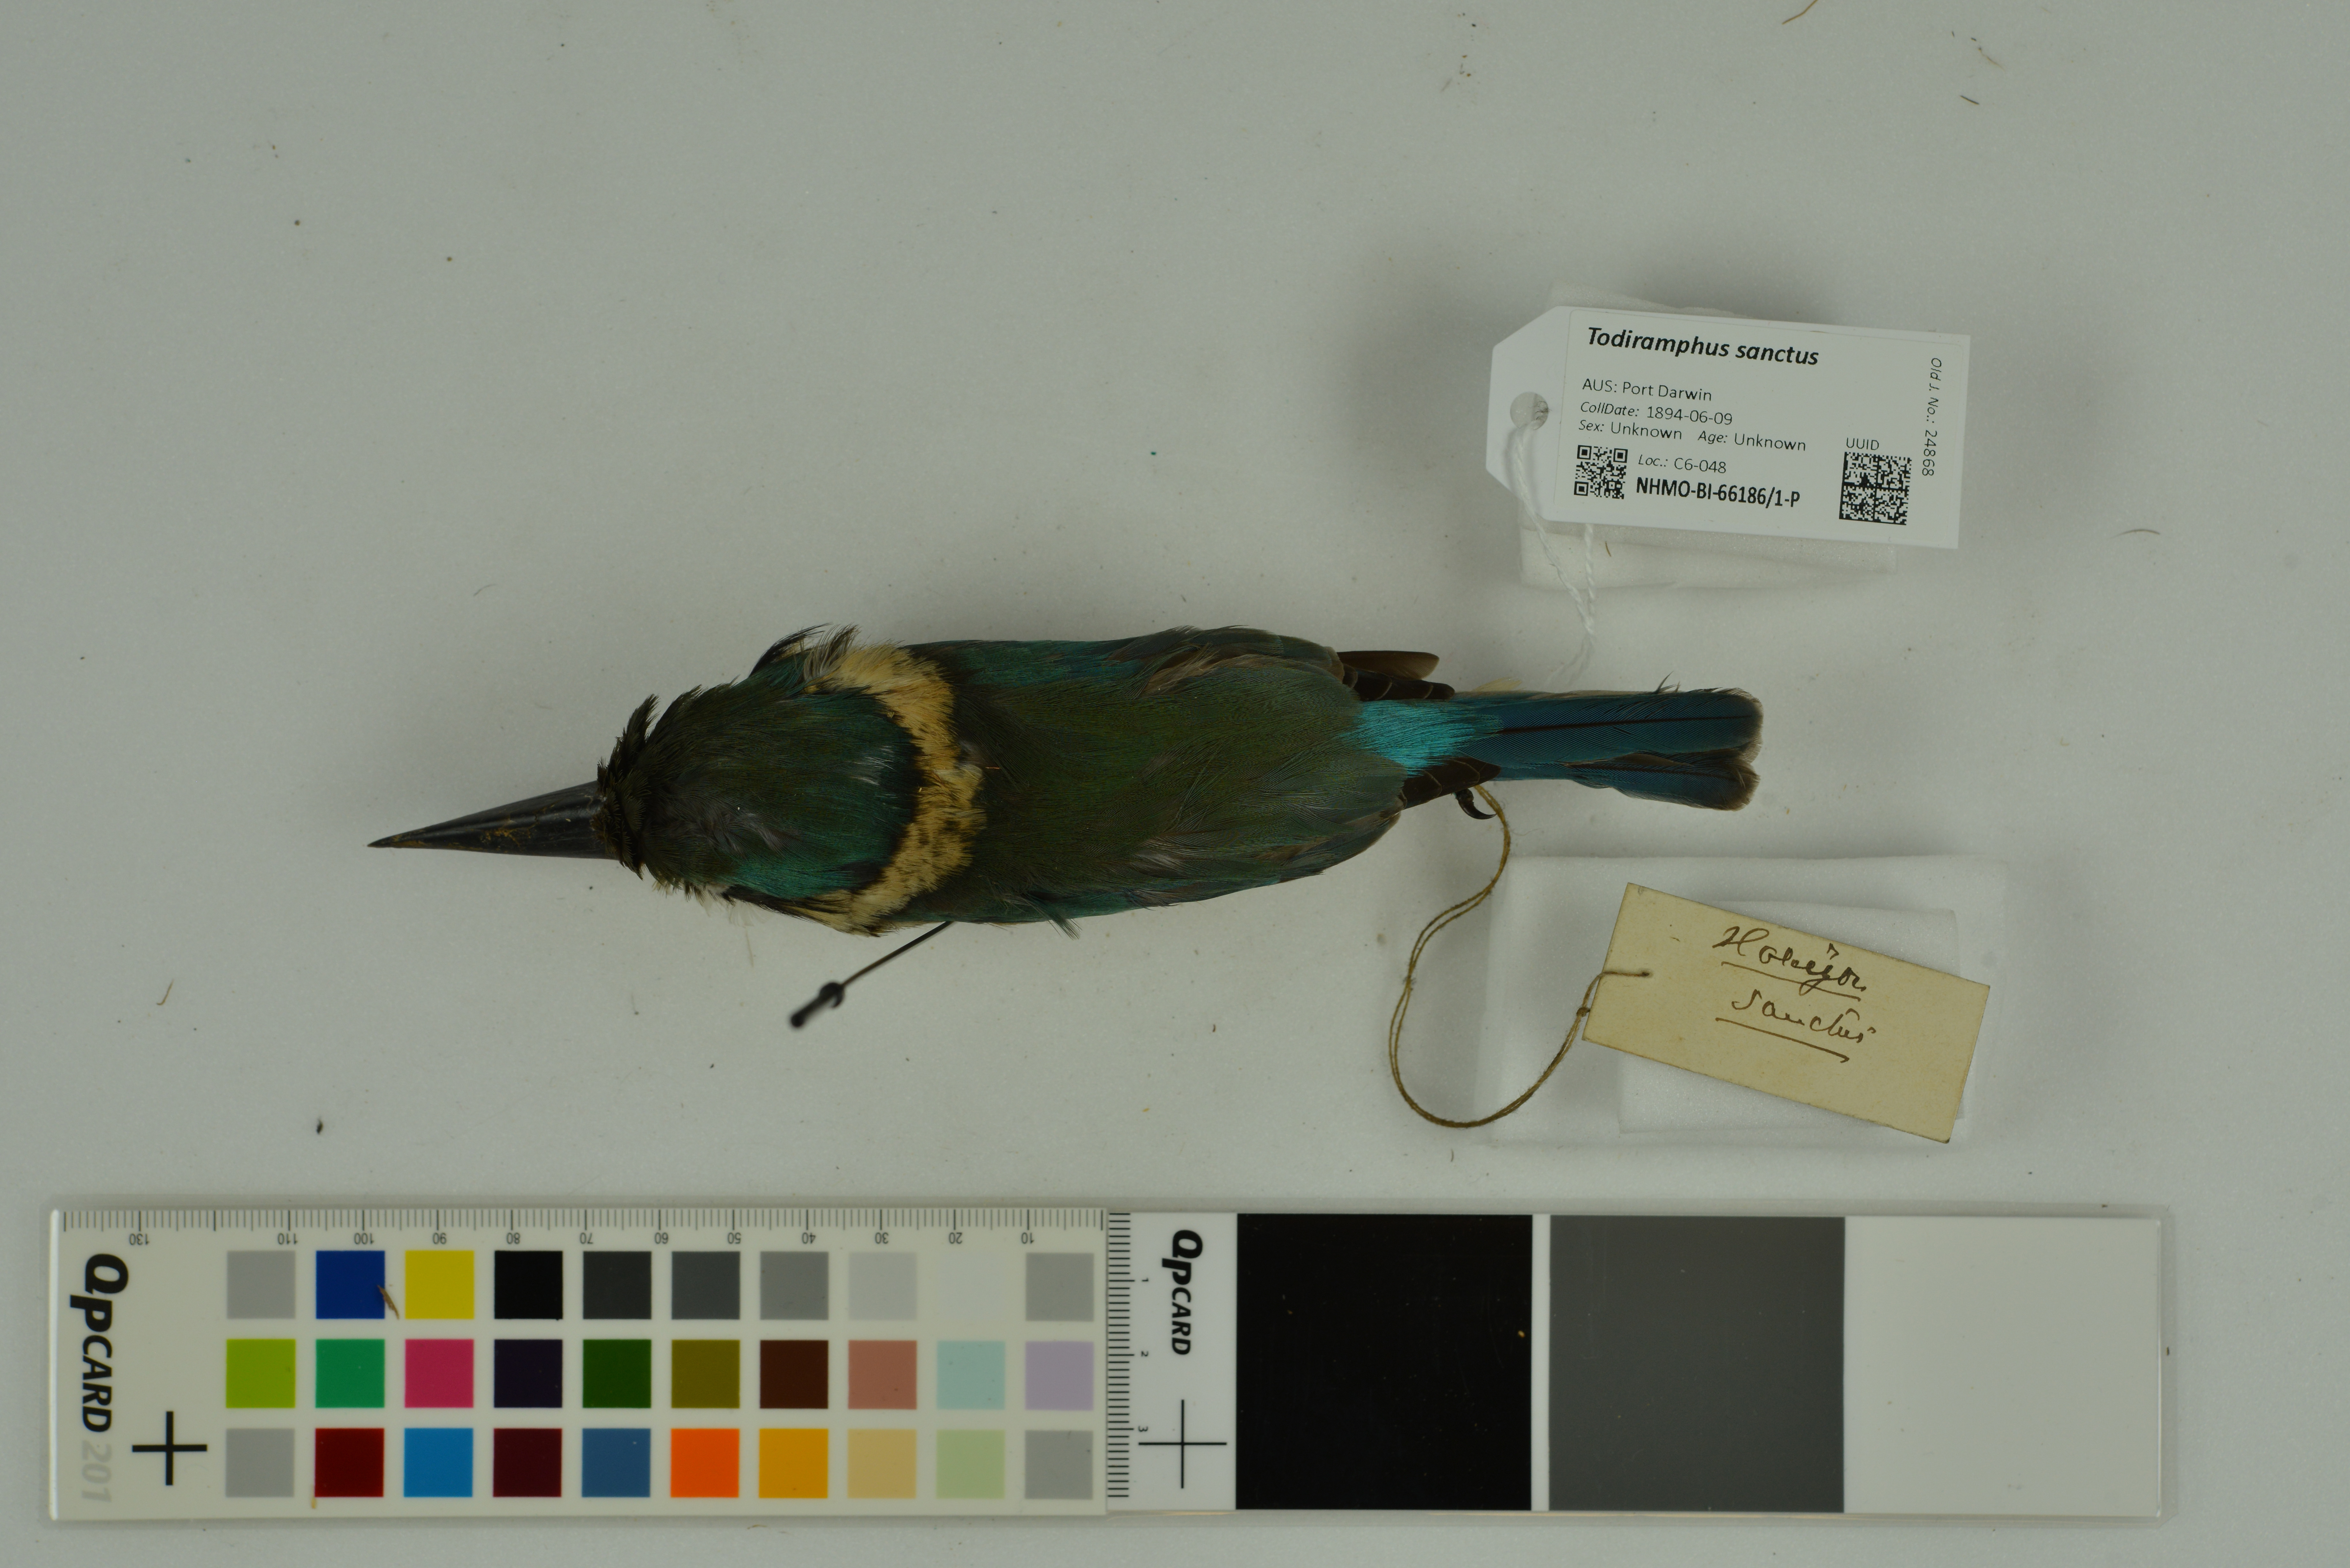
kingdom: Animalia
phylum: Chordata
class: Aves
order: Coraciiformes
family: Alcedinidae
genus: Todiramphus
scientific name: Todiramphus sanctus
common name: Sacred kingfisher
